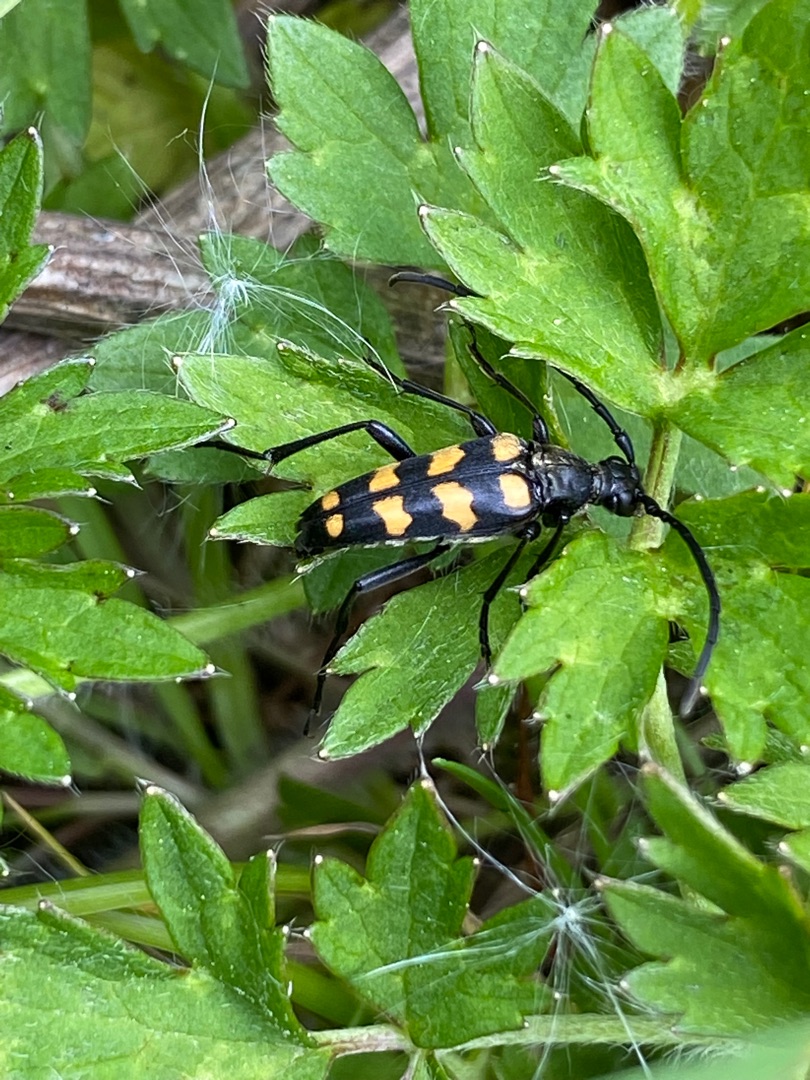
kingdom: Animalia
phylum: Arthropoda
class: Insecta
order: Coleoptera
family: Cerambycidae
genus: Leptura
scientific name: Leptura quadrifasciata
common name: Firebåndet blomsterbuk
